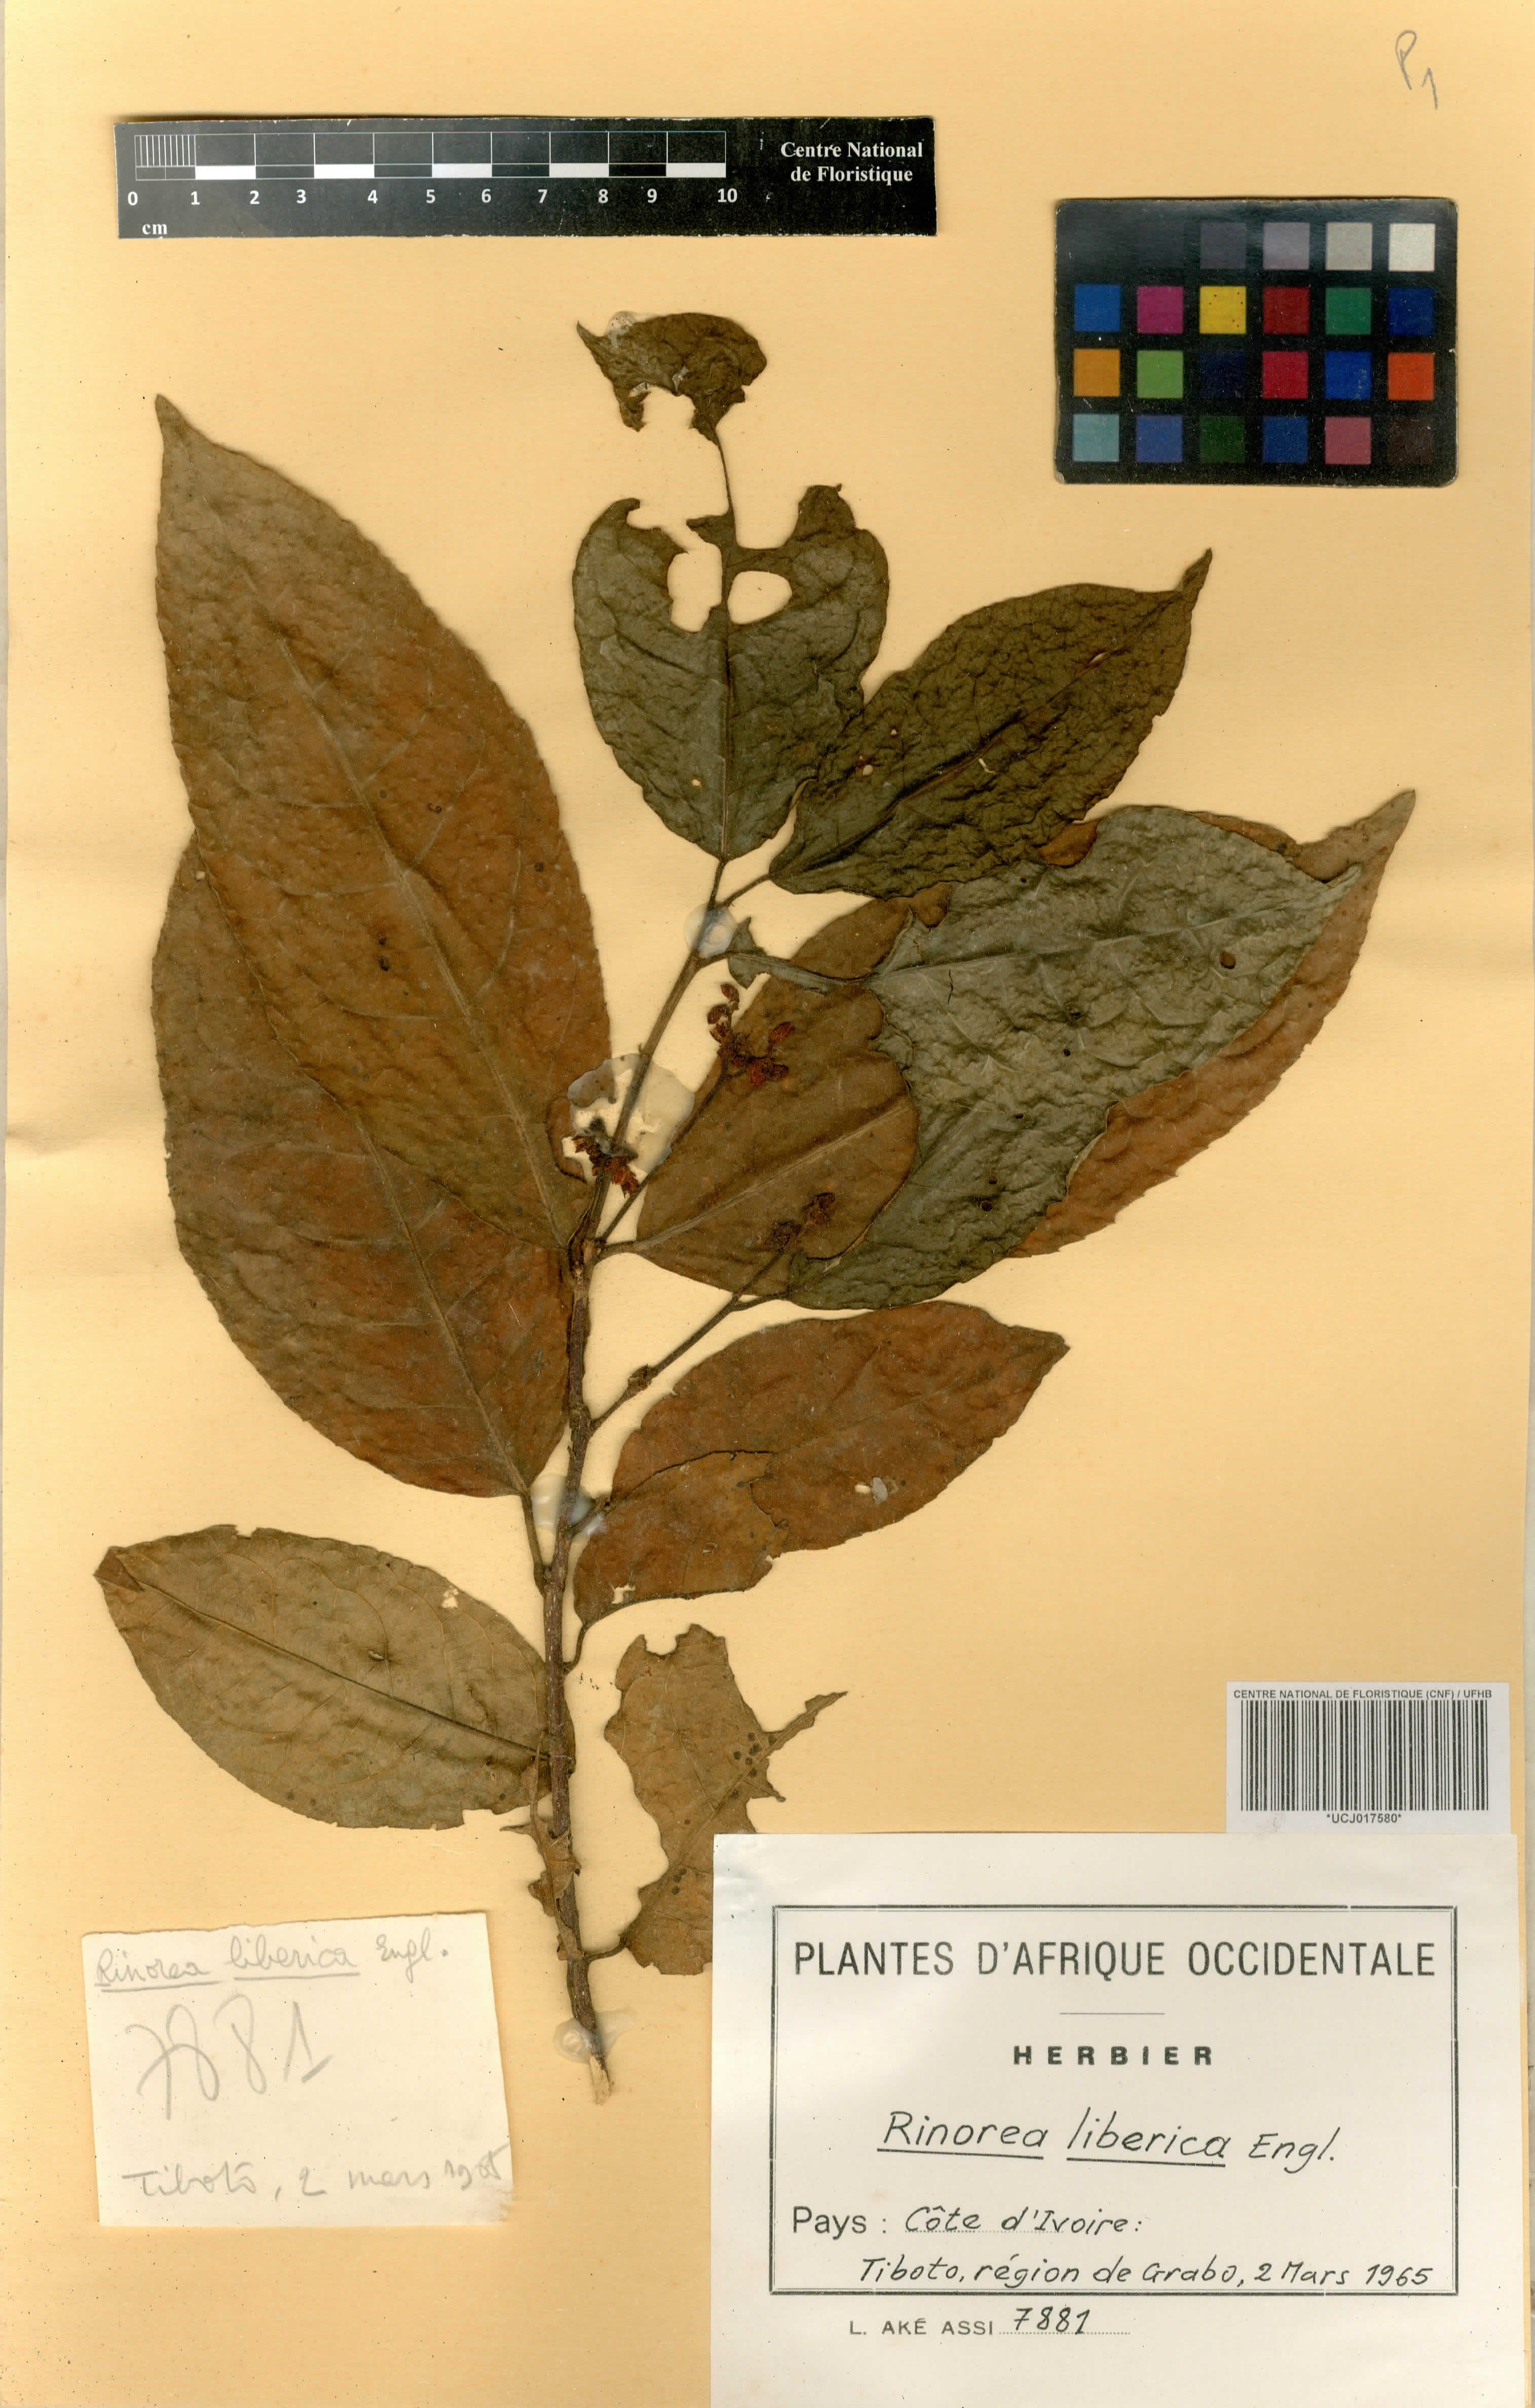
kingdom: Plantae
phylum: Tracheophyta
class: Magnoliopsida
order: Malpighiales
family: Violaceae
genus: Rinorea
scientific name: Rinorea liberica
